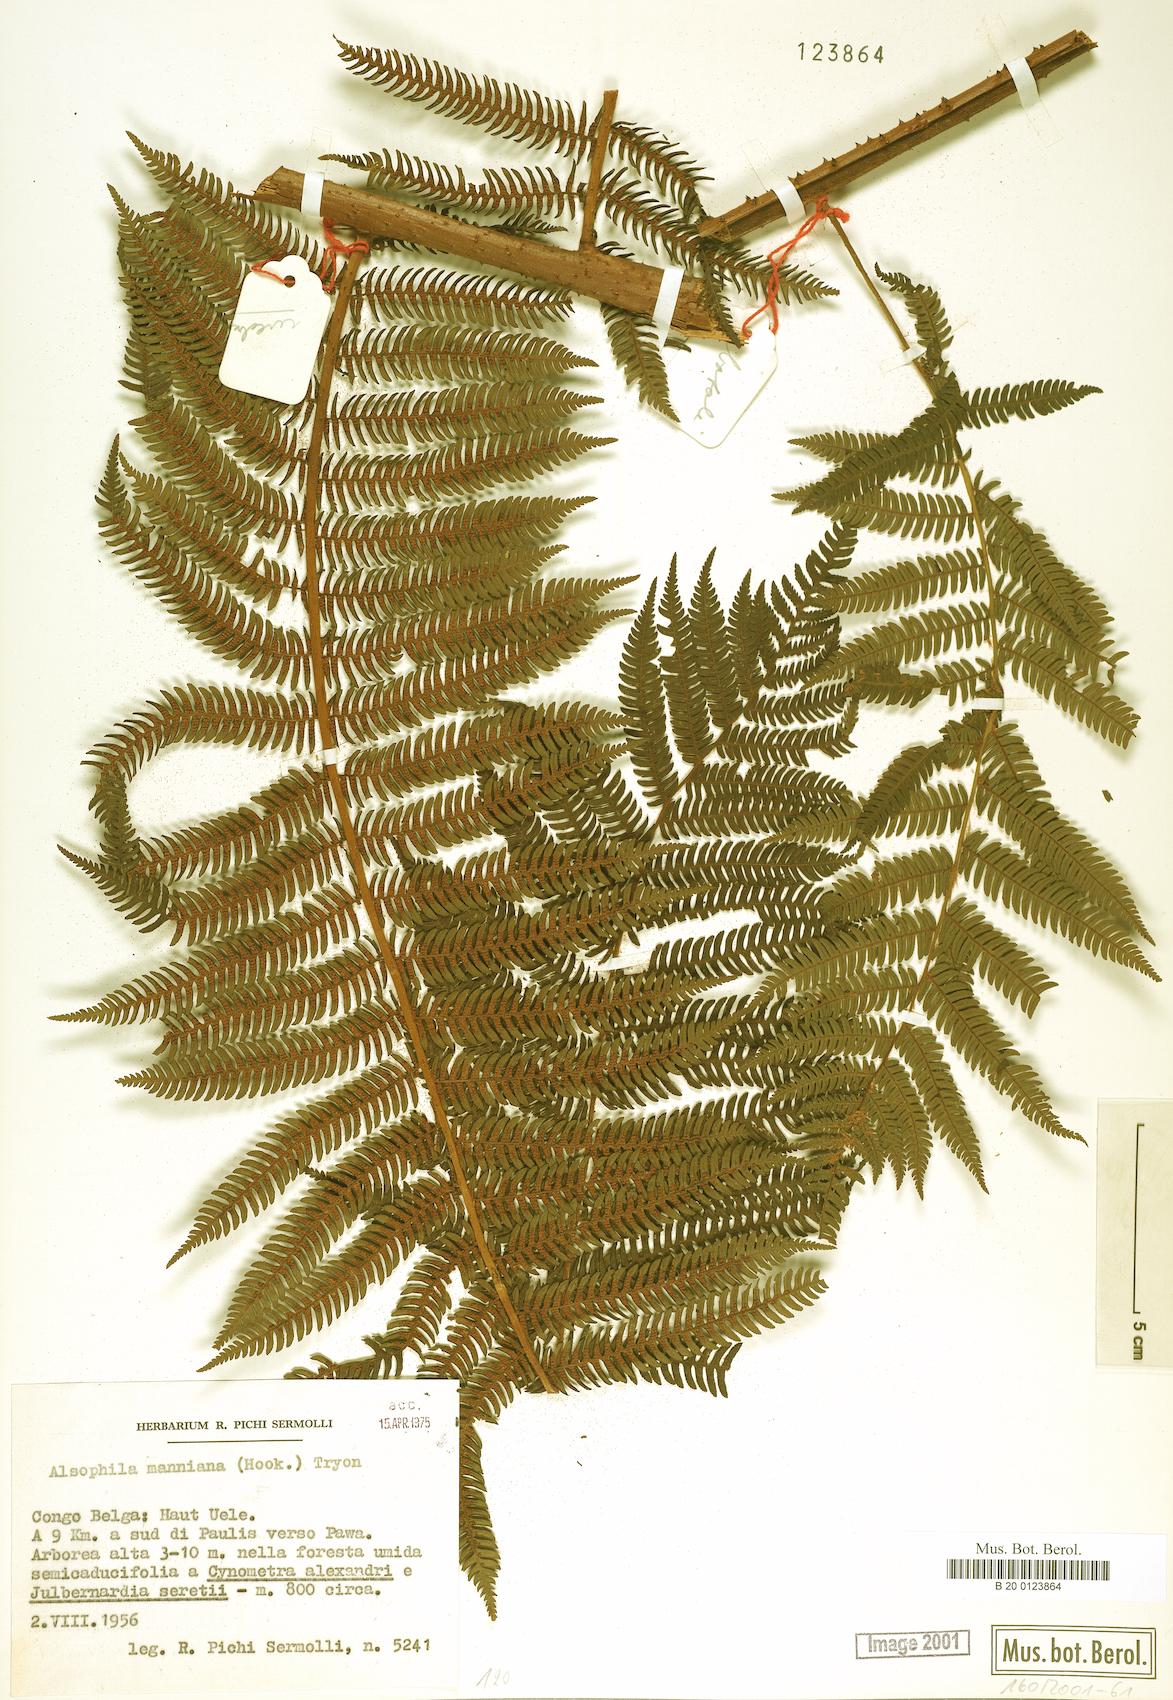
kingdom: Plantae
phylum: Tracheophyta
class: Polypodiopsida
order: Cyatheales
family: Cyatheaceae
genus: Alsophila
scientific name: Alsophila manniana
